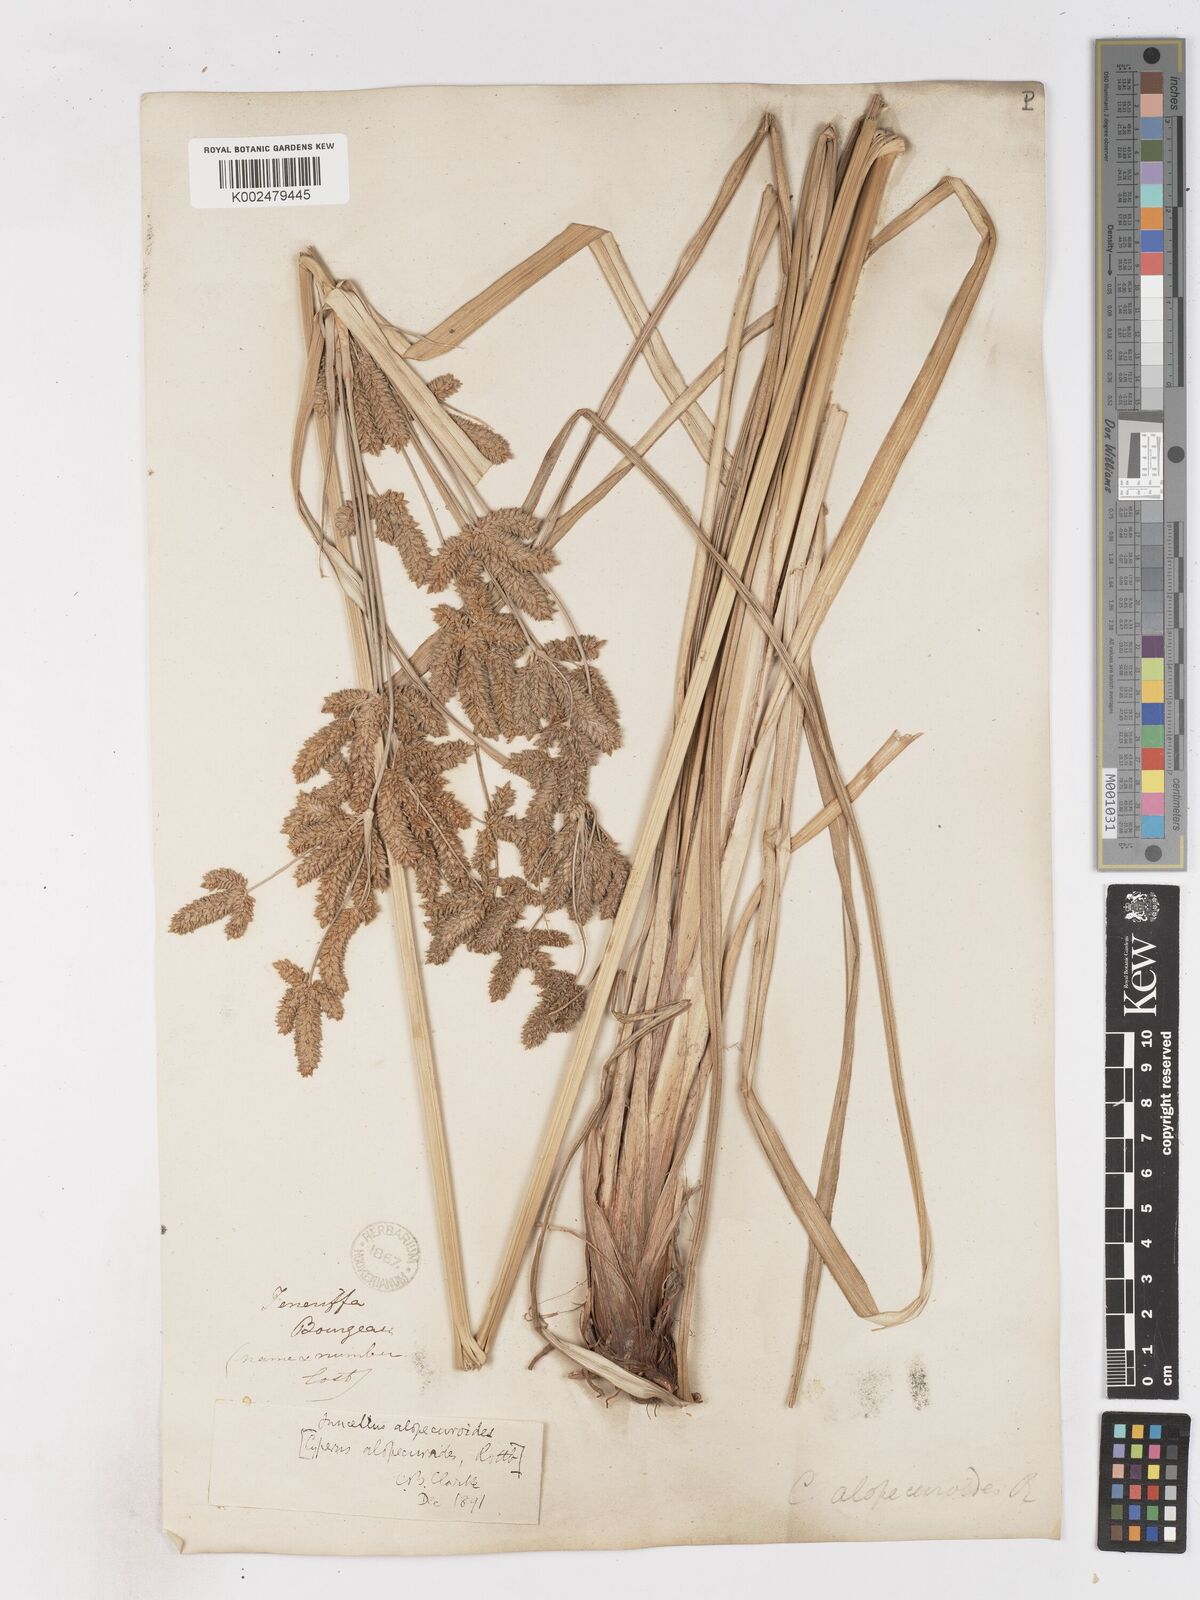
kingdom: Plantae
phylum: Tracheophyta
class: Liliopsida
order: Poales
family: Cyperaceae
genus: Cyperus
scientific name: Cyperus alopecuroides
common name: Foxtail flatsedge
